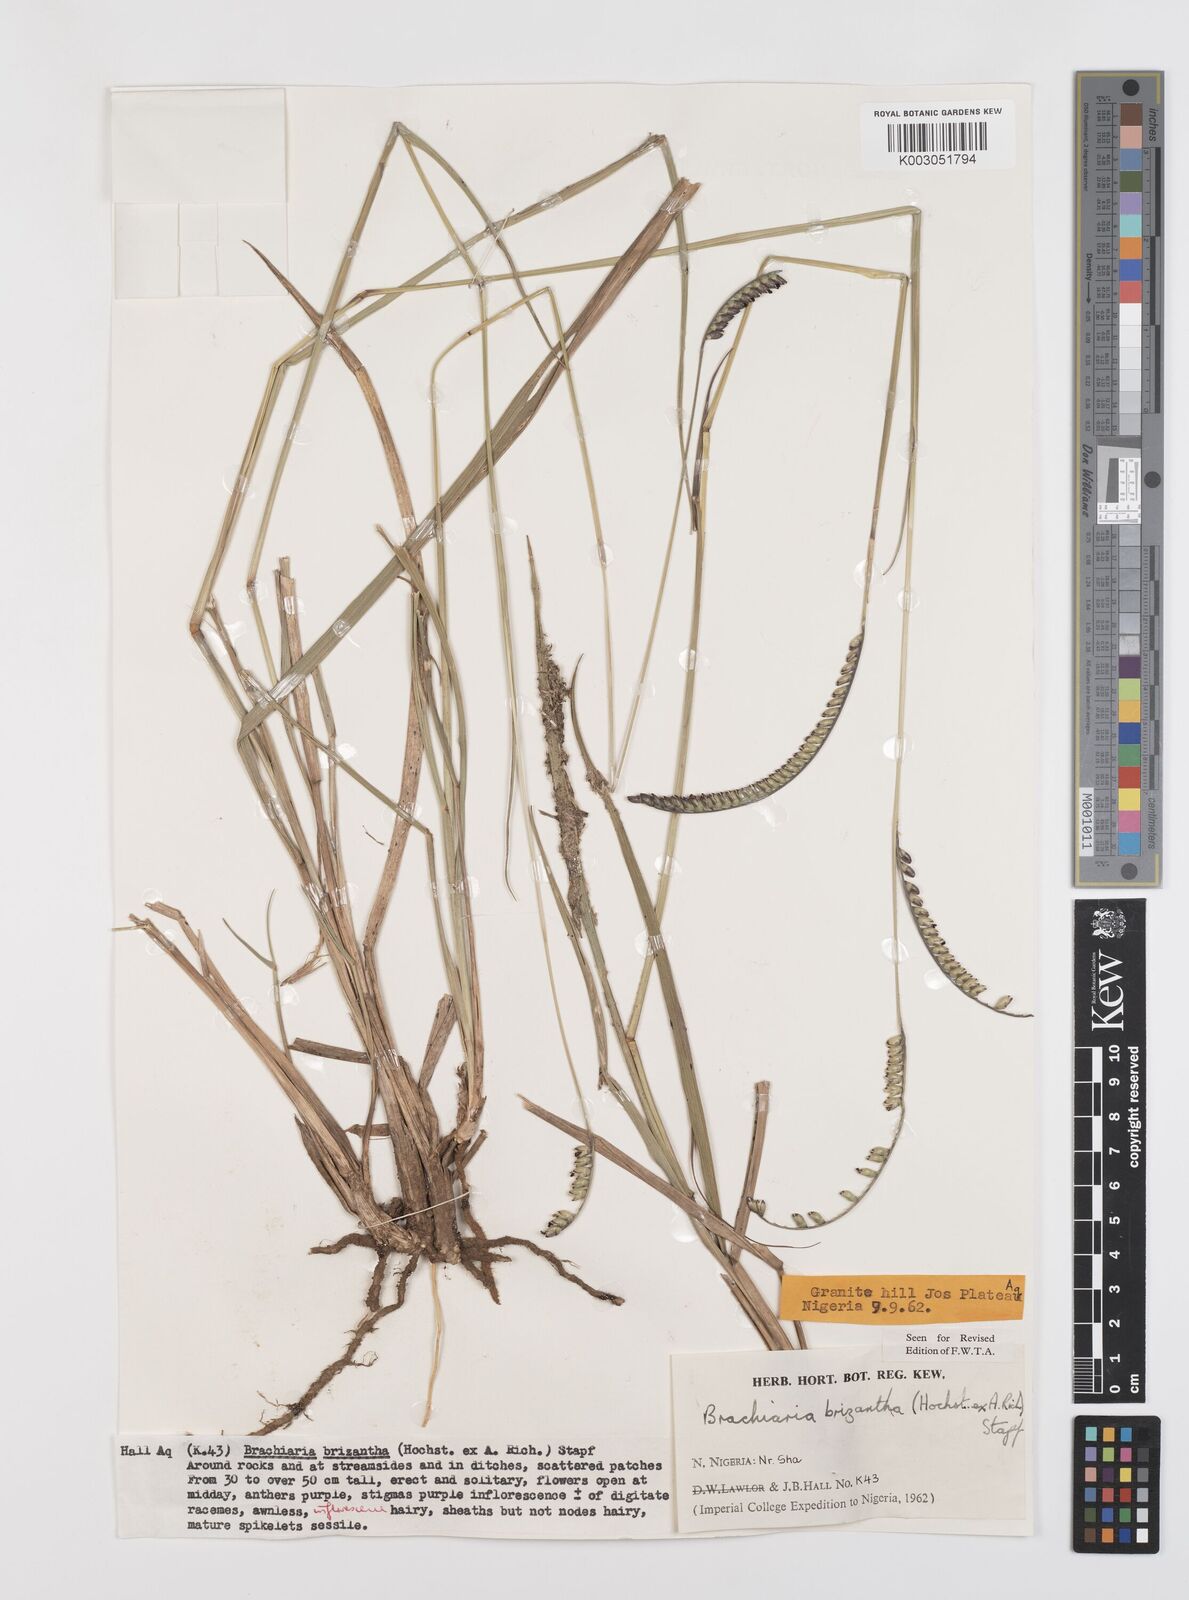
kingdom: Plantae
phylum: Tracheophyta
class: Liliopsida
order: Poales
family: Poaceae
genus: Urochloa
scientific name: Urochloa brizantha
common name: Palisade signalgrass
